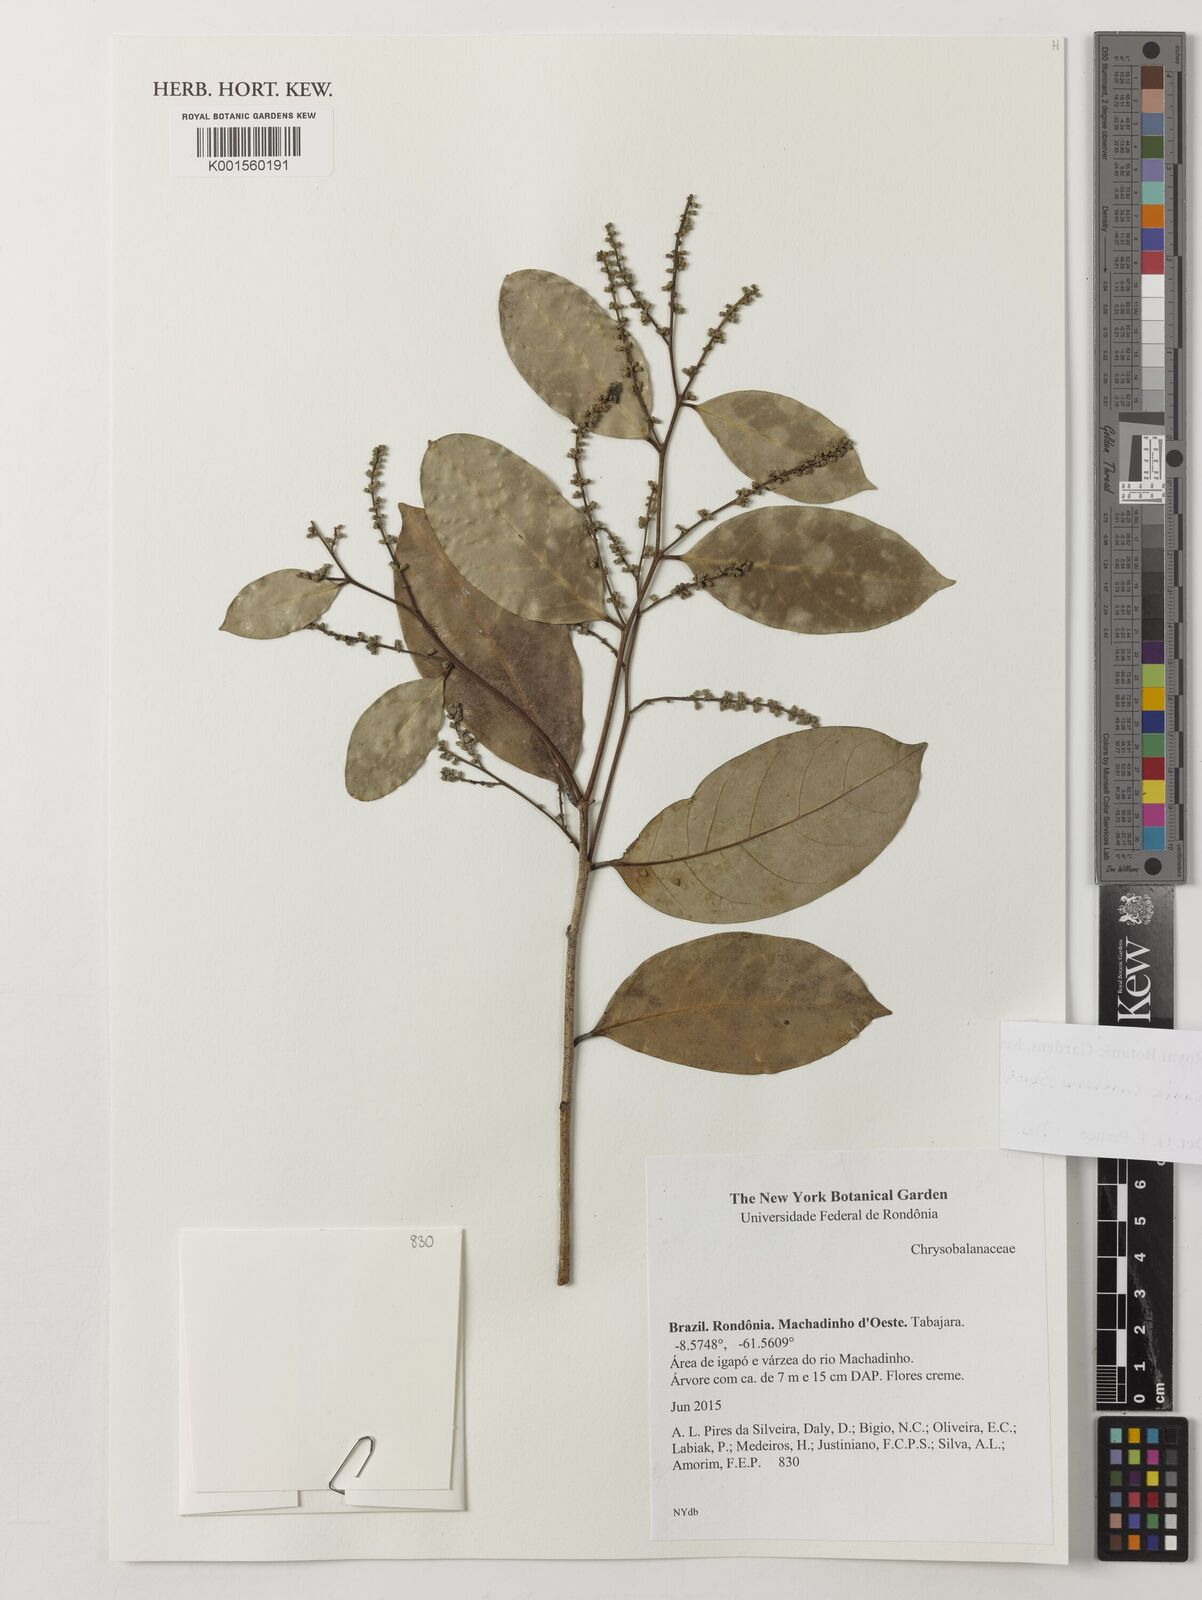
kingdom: Plantae
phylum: Tracheophyta
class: Magnoliopsida
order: Malpighiales
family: Chrysobalanaceae
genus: Licania
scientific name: Licania canescens
